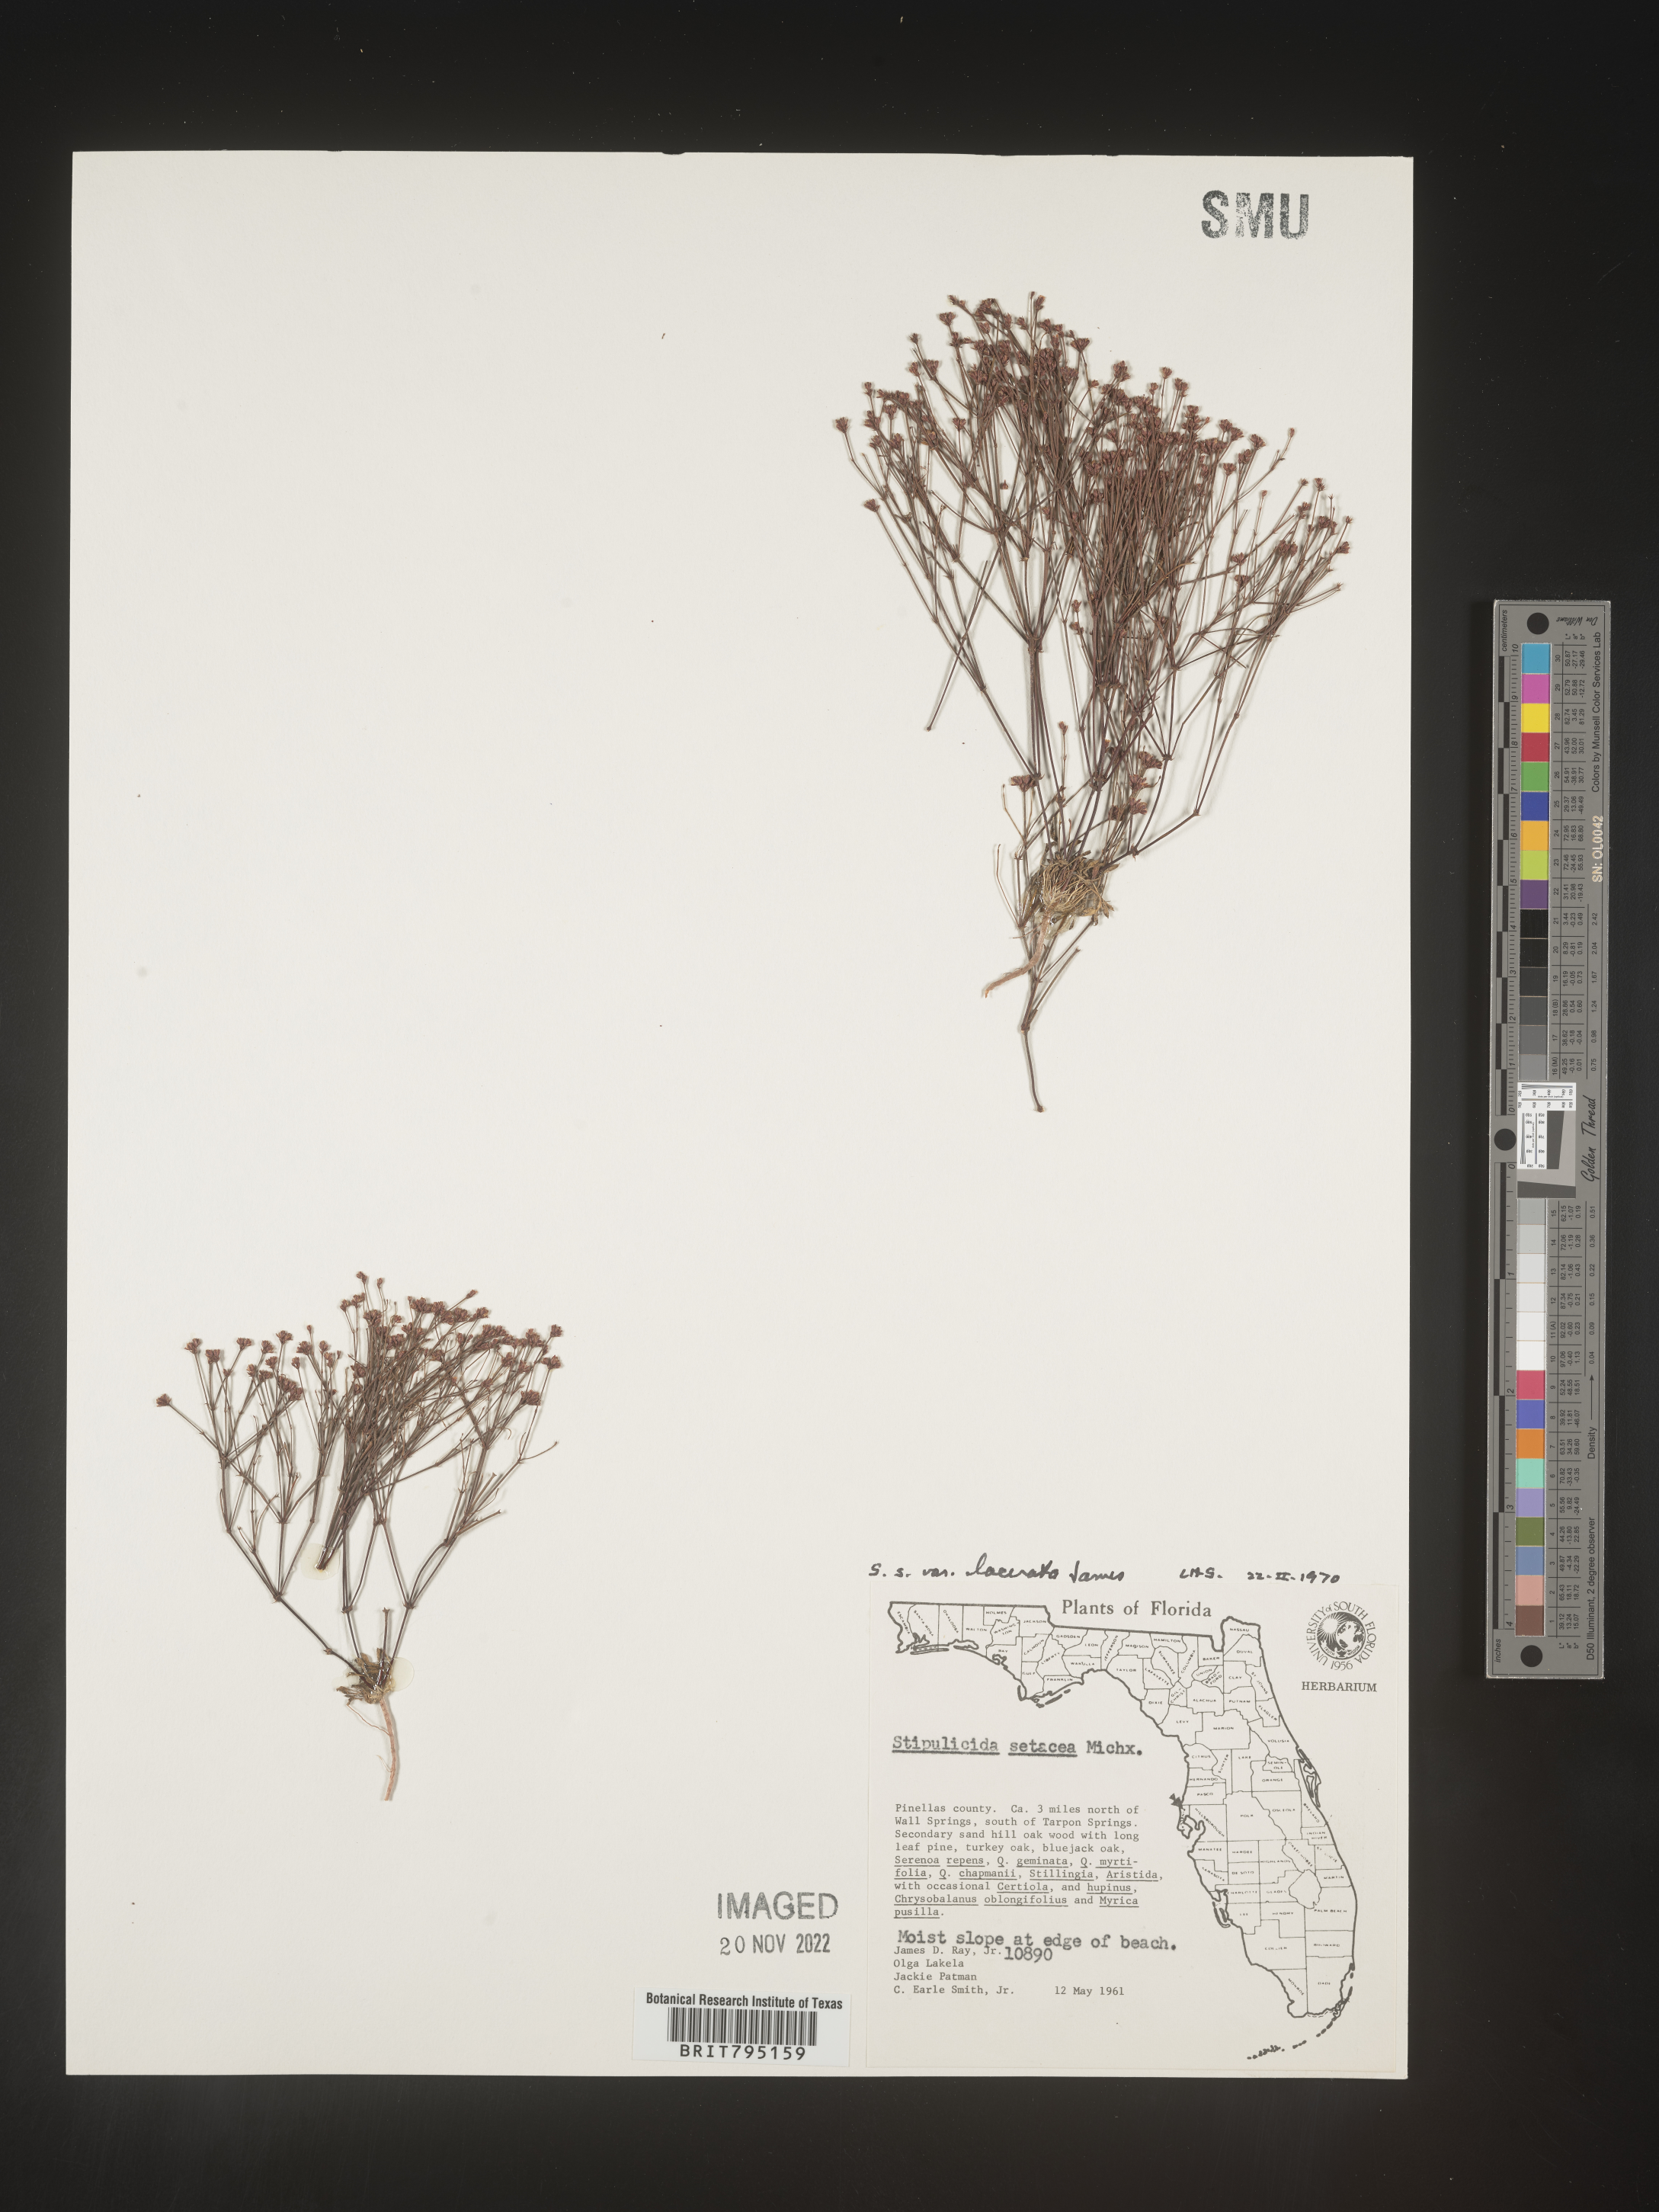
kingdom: Plantae
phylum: Tracheophyta
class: Magnoliopsida
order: Caryophyllales
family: Caryophyllaceae
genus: Stipulicida
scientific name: Stipulicida
